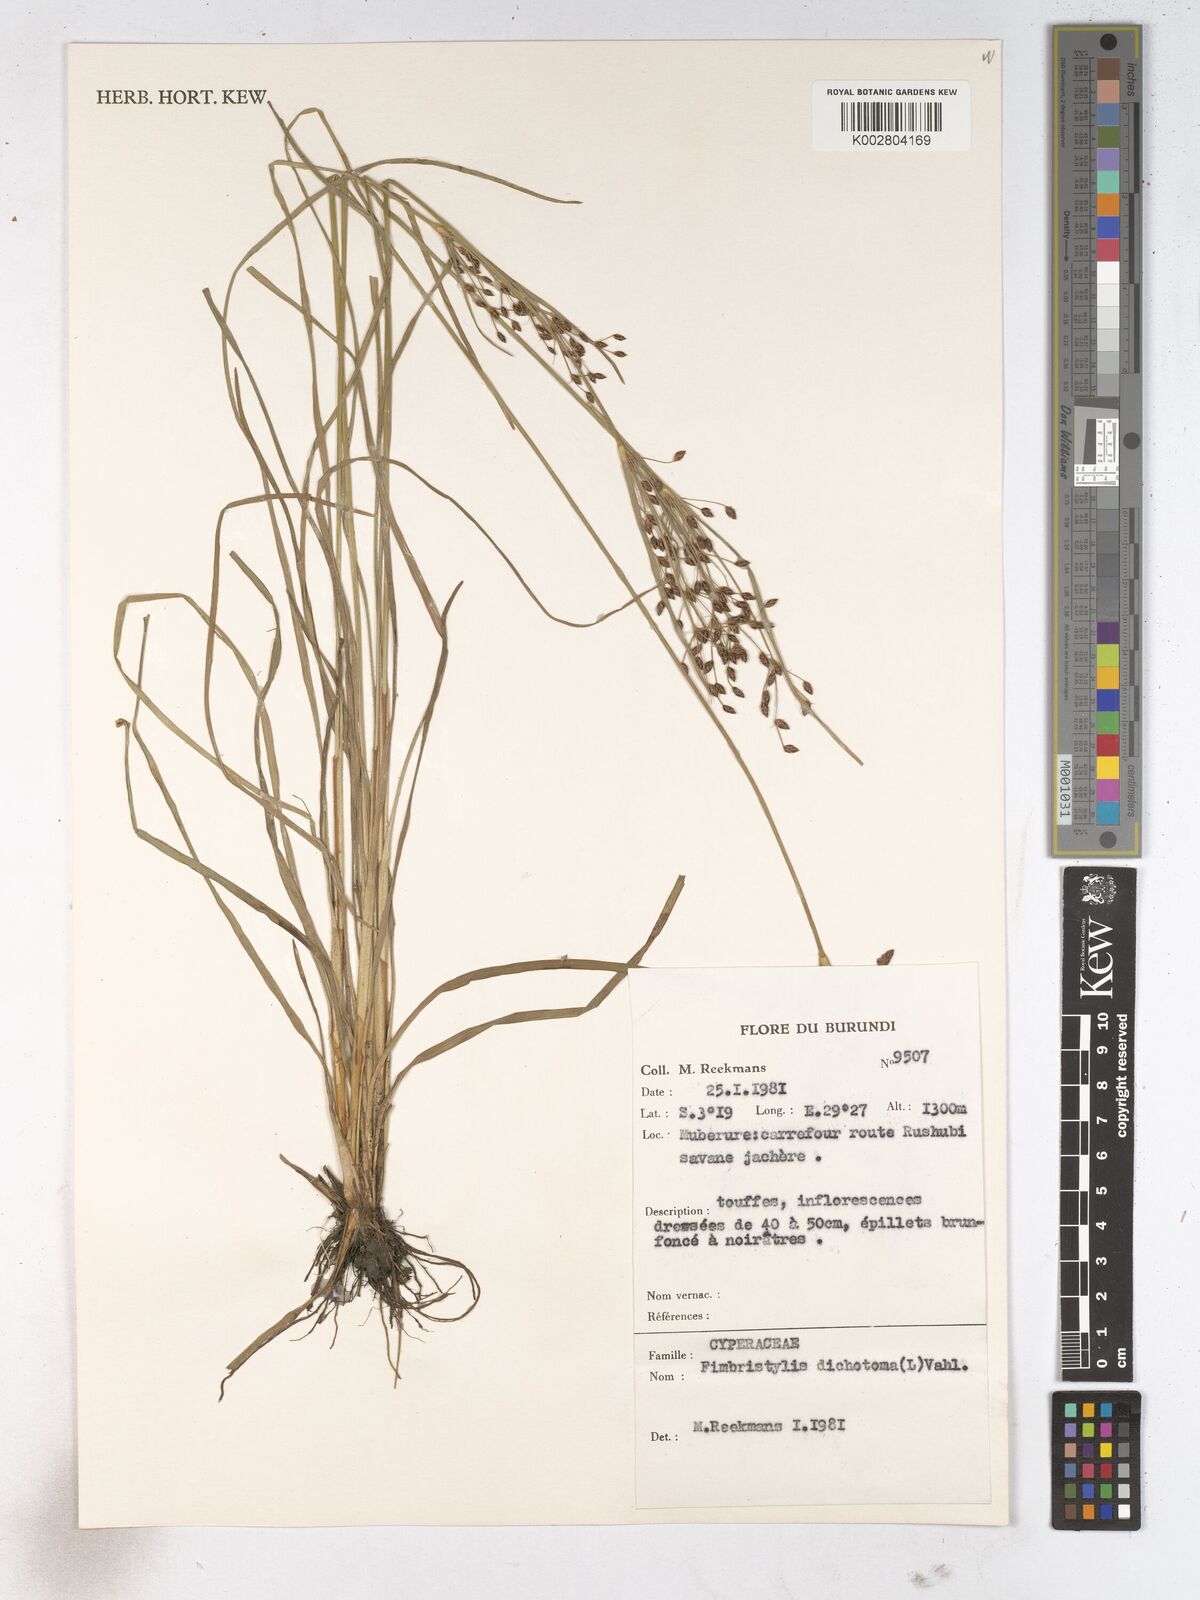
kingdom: Plantae
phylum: Tracheophyta
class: Liliopsida
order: Poales
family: Cyperaceae
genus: Fimbristylis
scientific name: Fimbristylis dichotoma
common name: Forked fimbry
